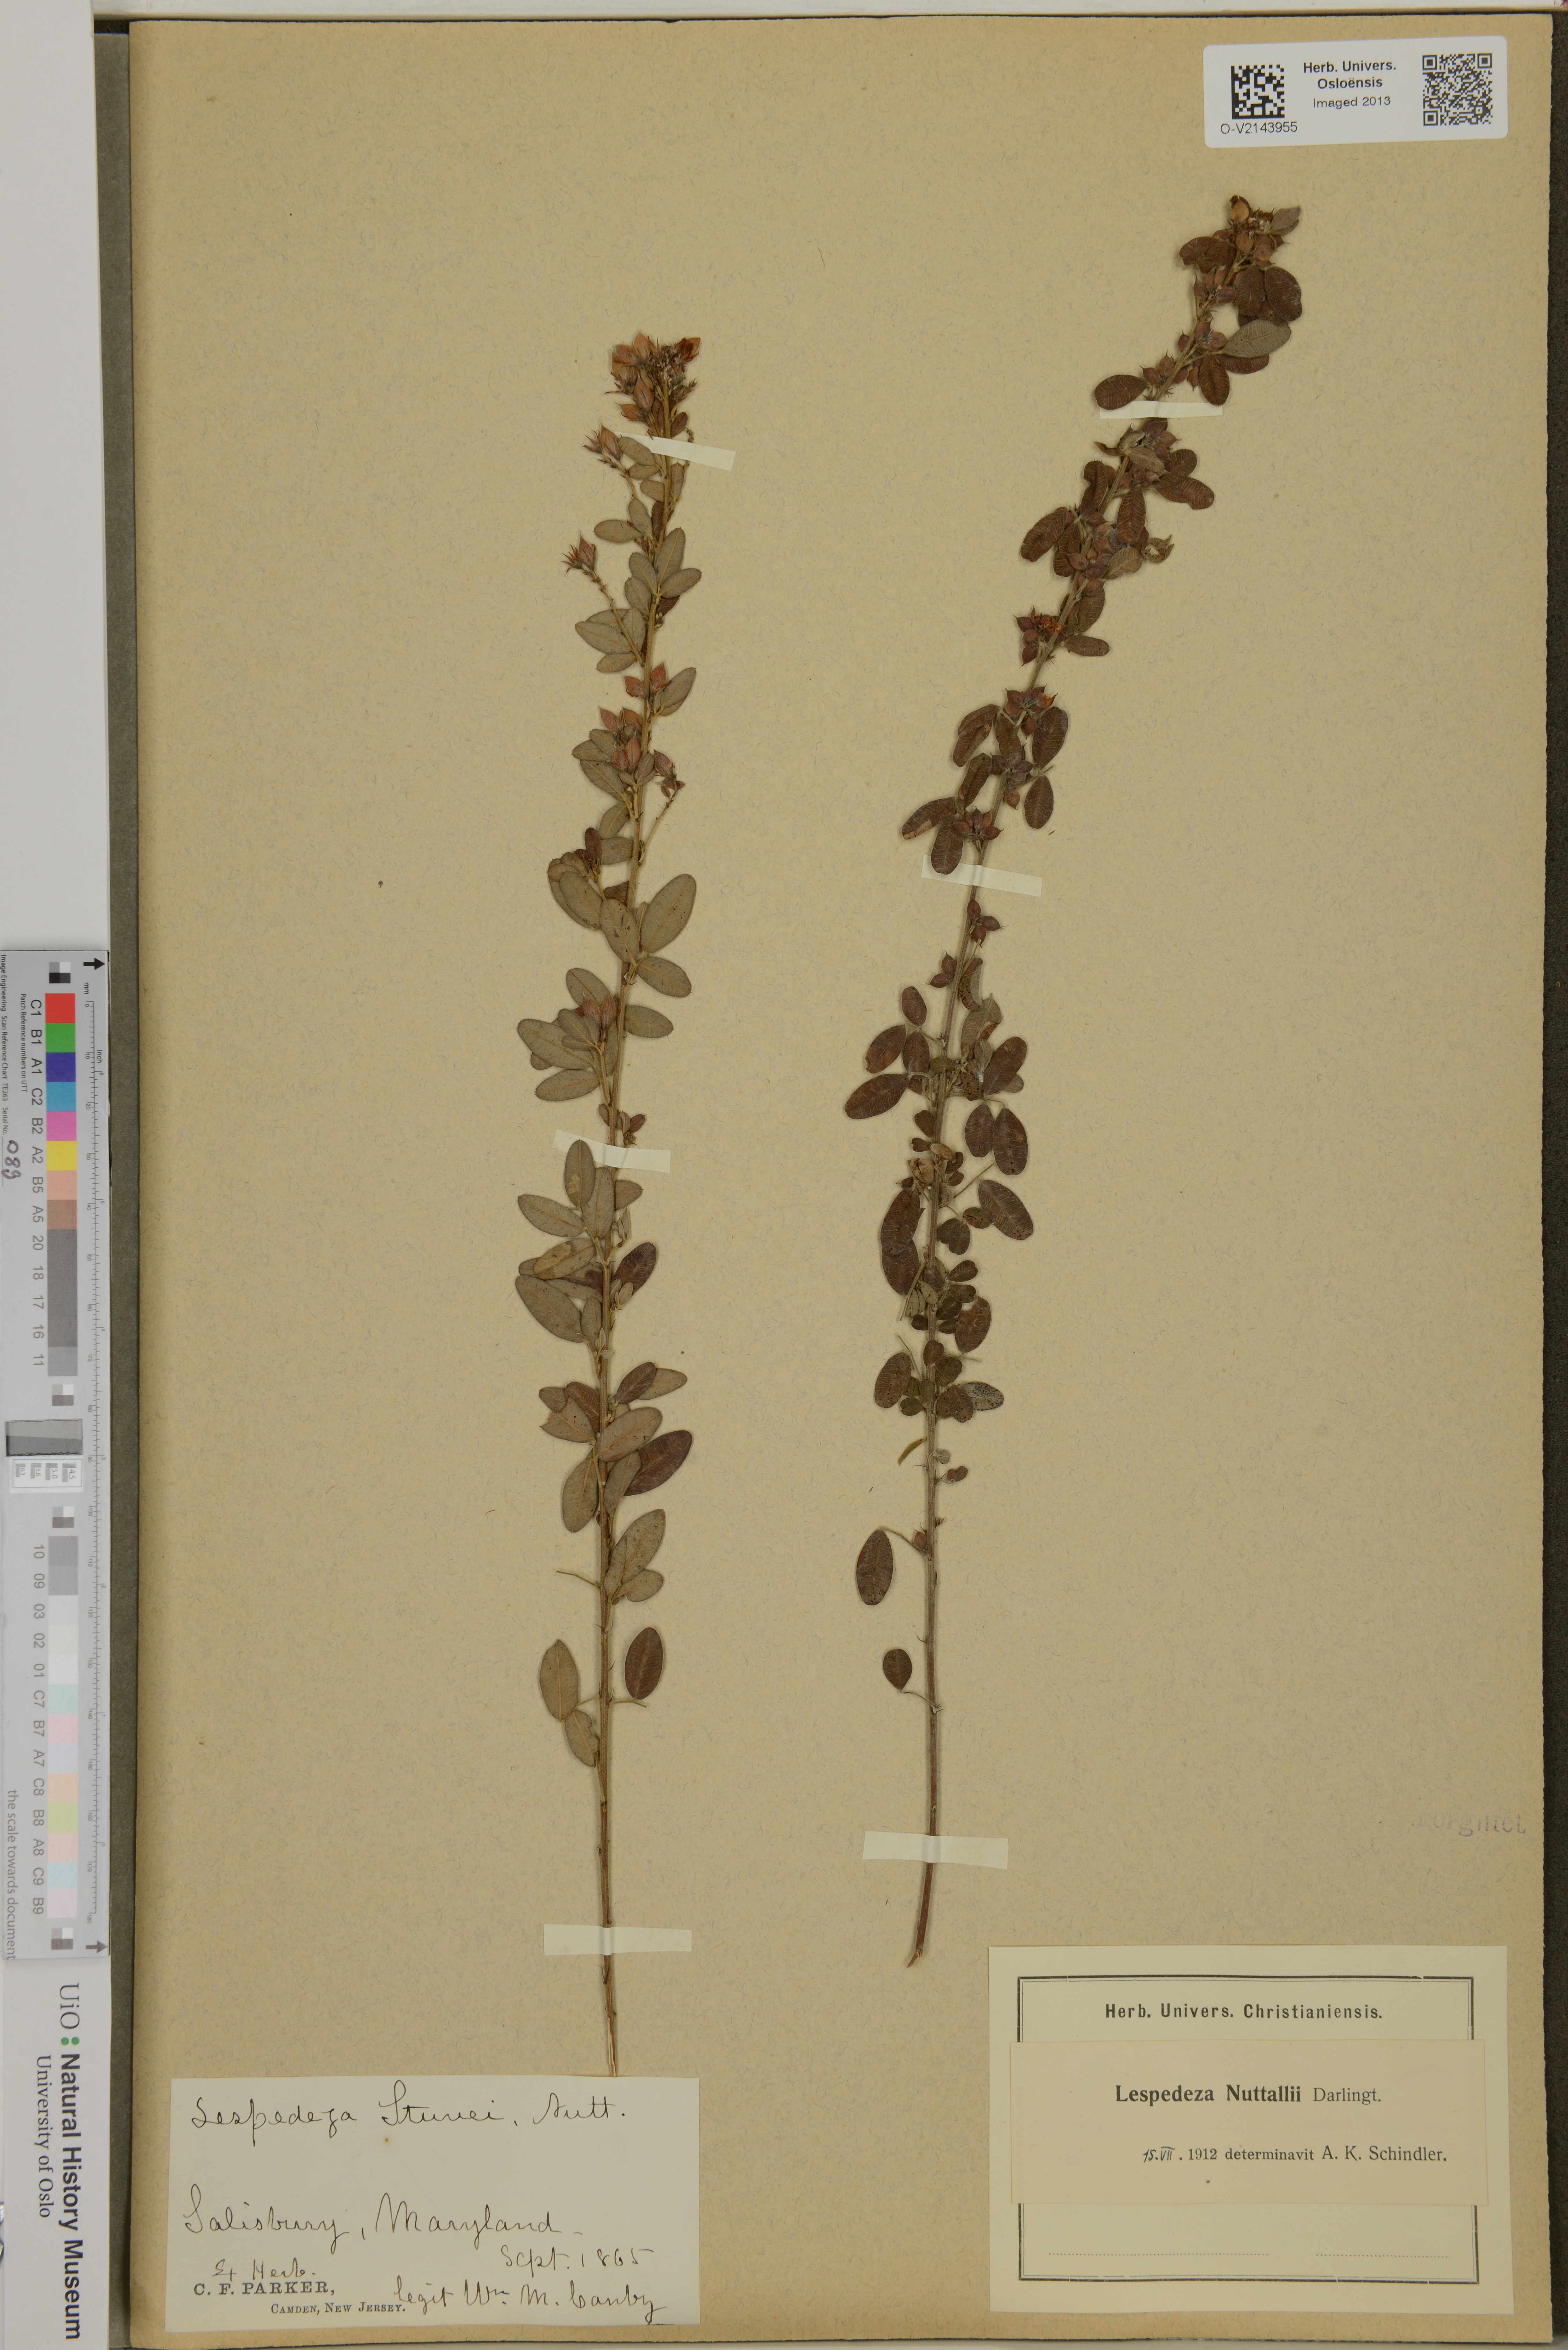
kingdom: Plantae
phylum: Tracheophyta
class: Magnoliopsida
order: Fabales
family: Fabaceae
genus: Lespedeza
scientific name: Lespedeza stuevei
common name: Tall bush-clover
